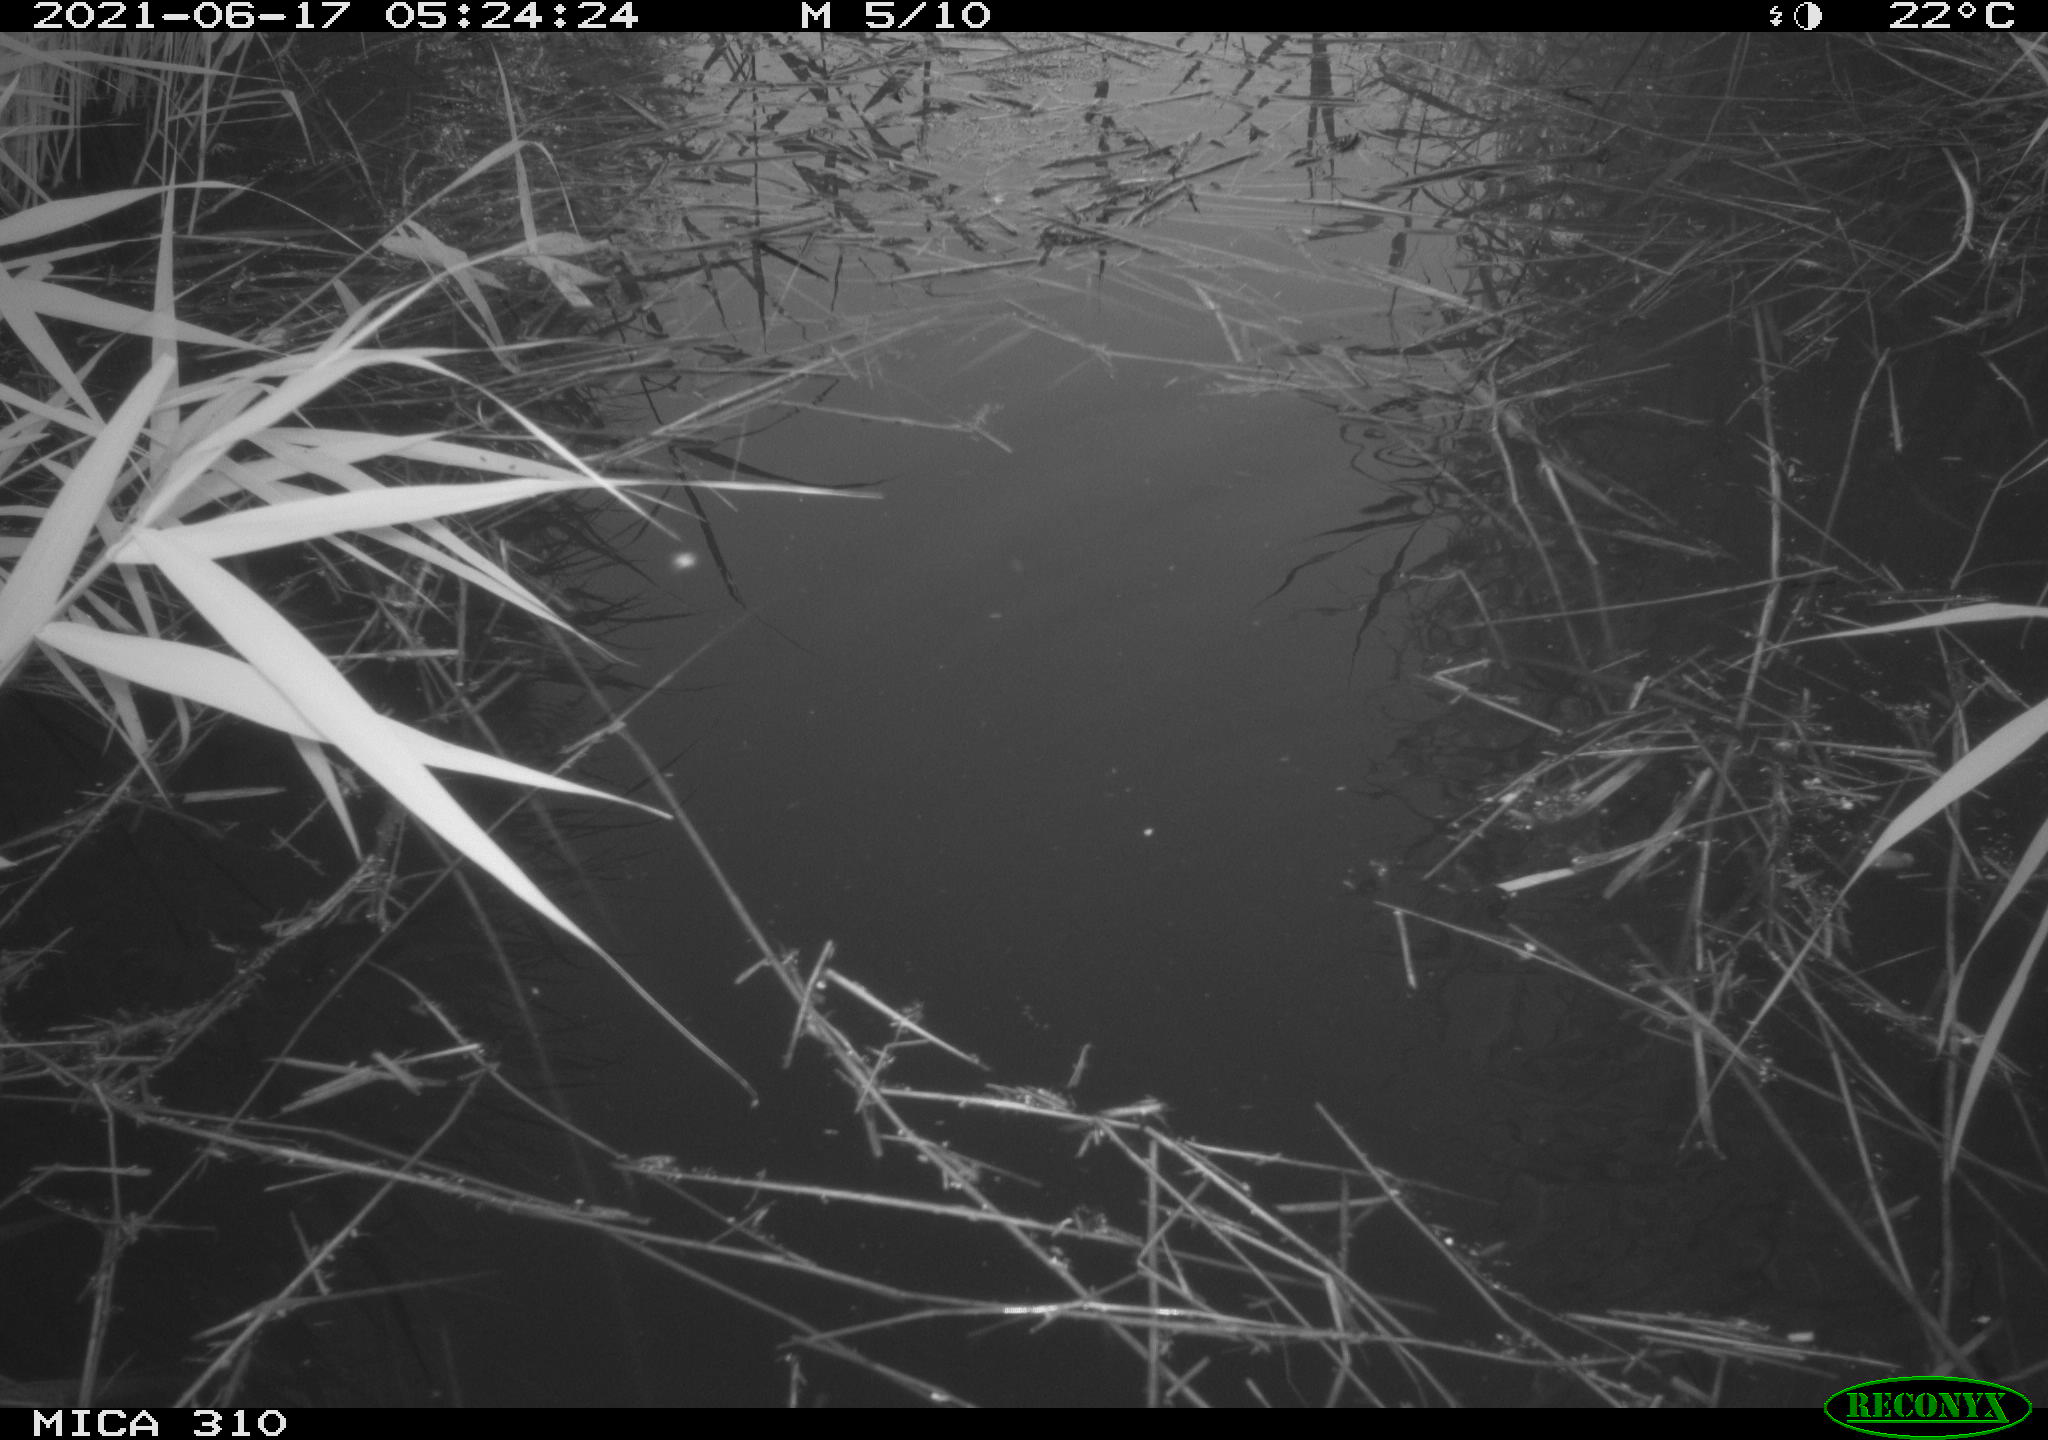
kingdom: Animalia
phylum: Chordata
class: Aves
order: Gruiformes
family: Rallidae
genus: Gallinula
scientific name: Gallinula chloropus
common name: Common moorhen
